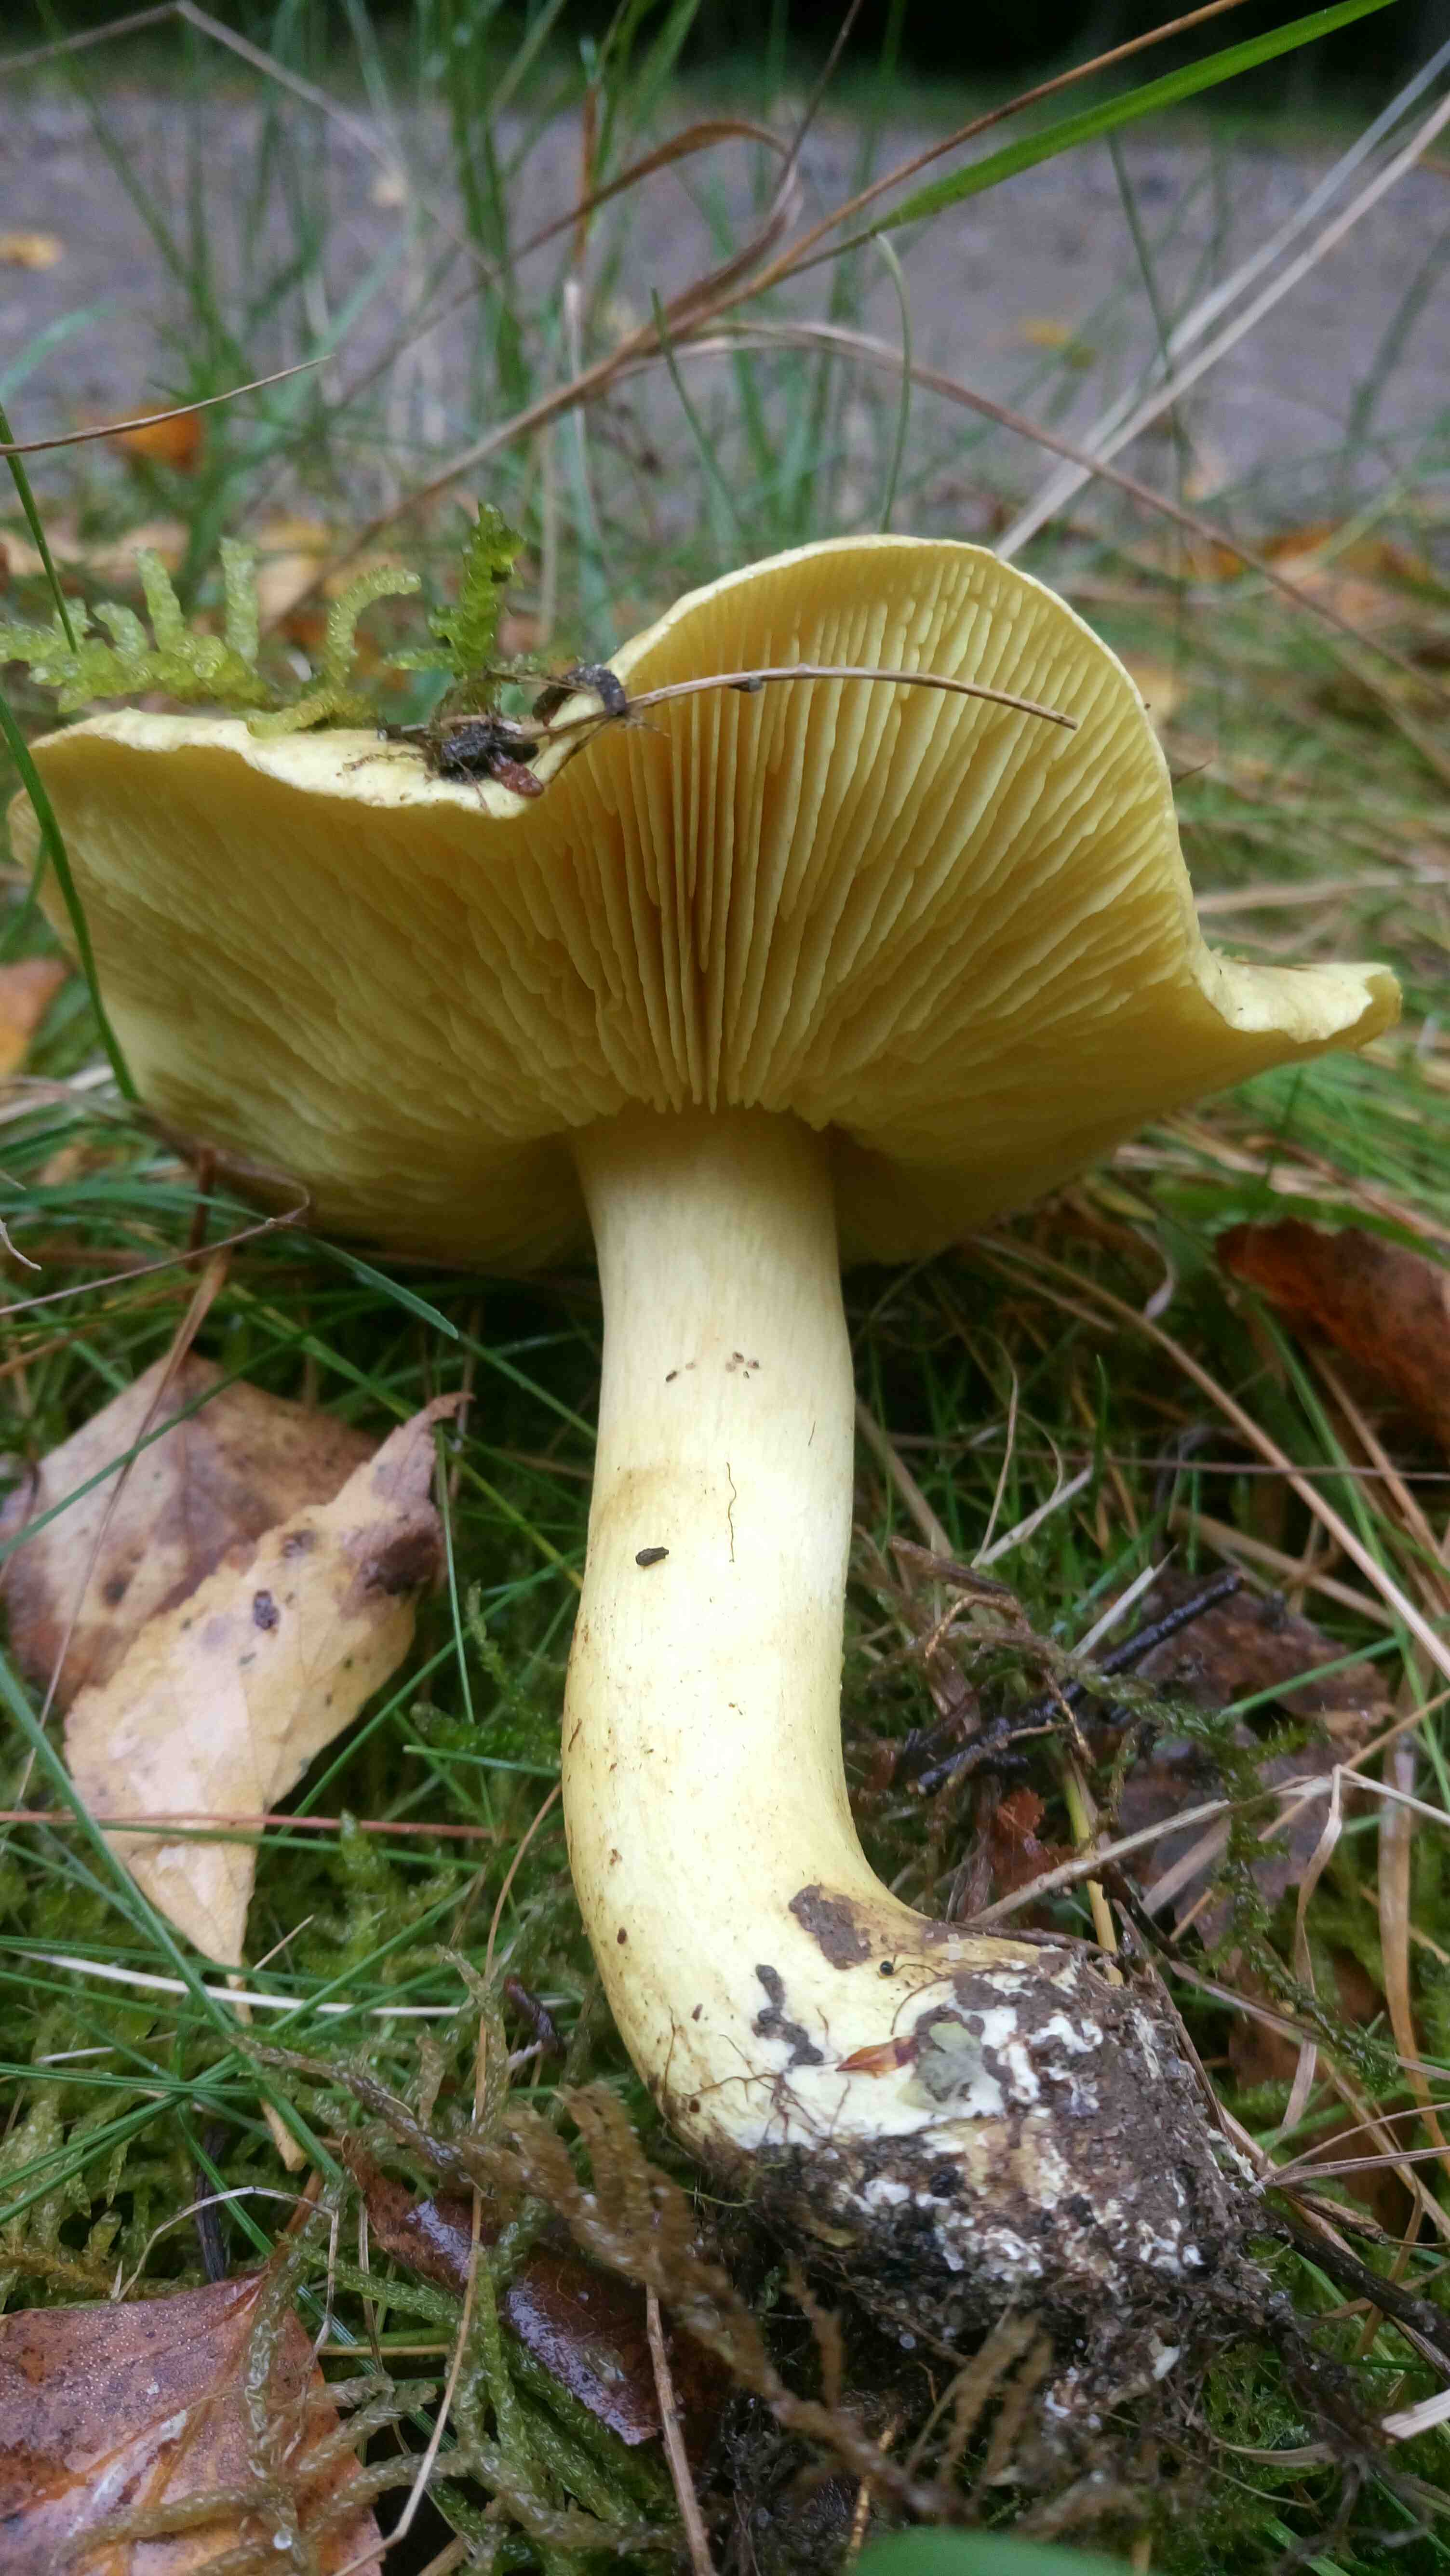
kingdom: Fungi
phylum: Basidiomycota
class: Agaricomycetes
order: Agaricales
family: Tricholomataceae
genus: Tricholoma
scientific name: Tricholoma frondosae
